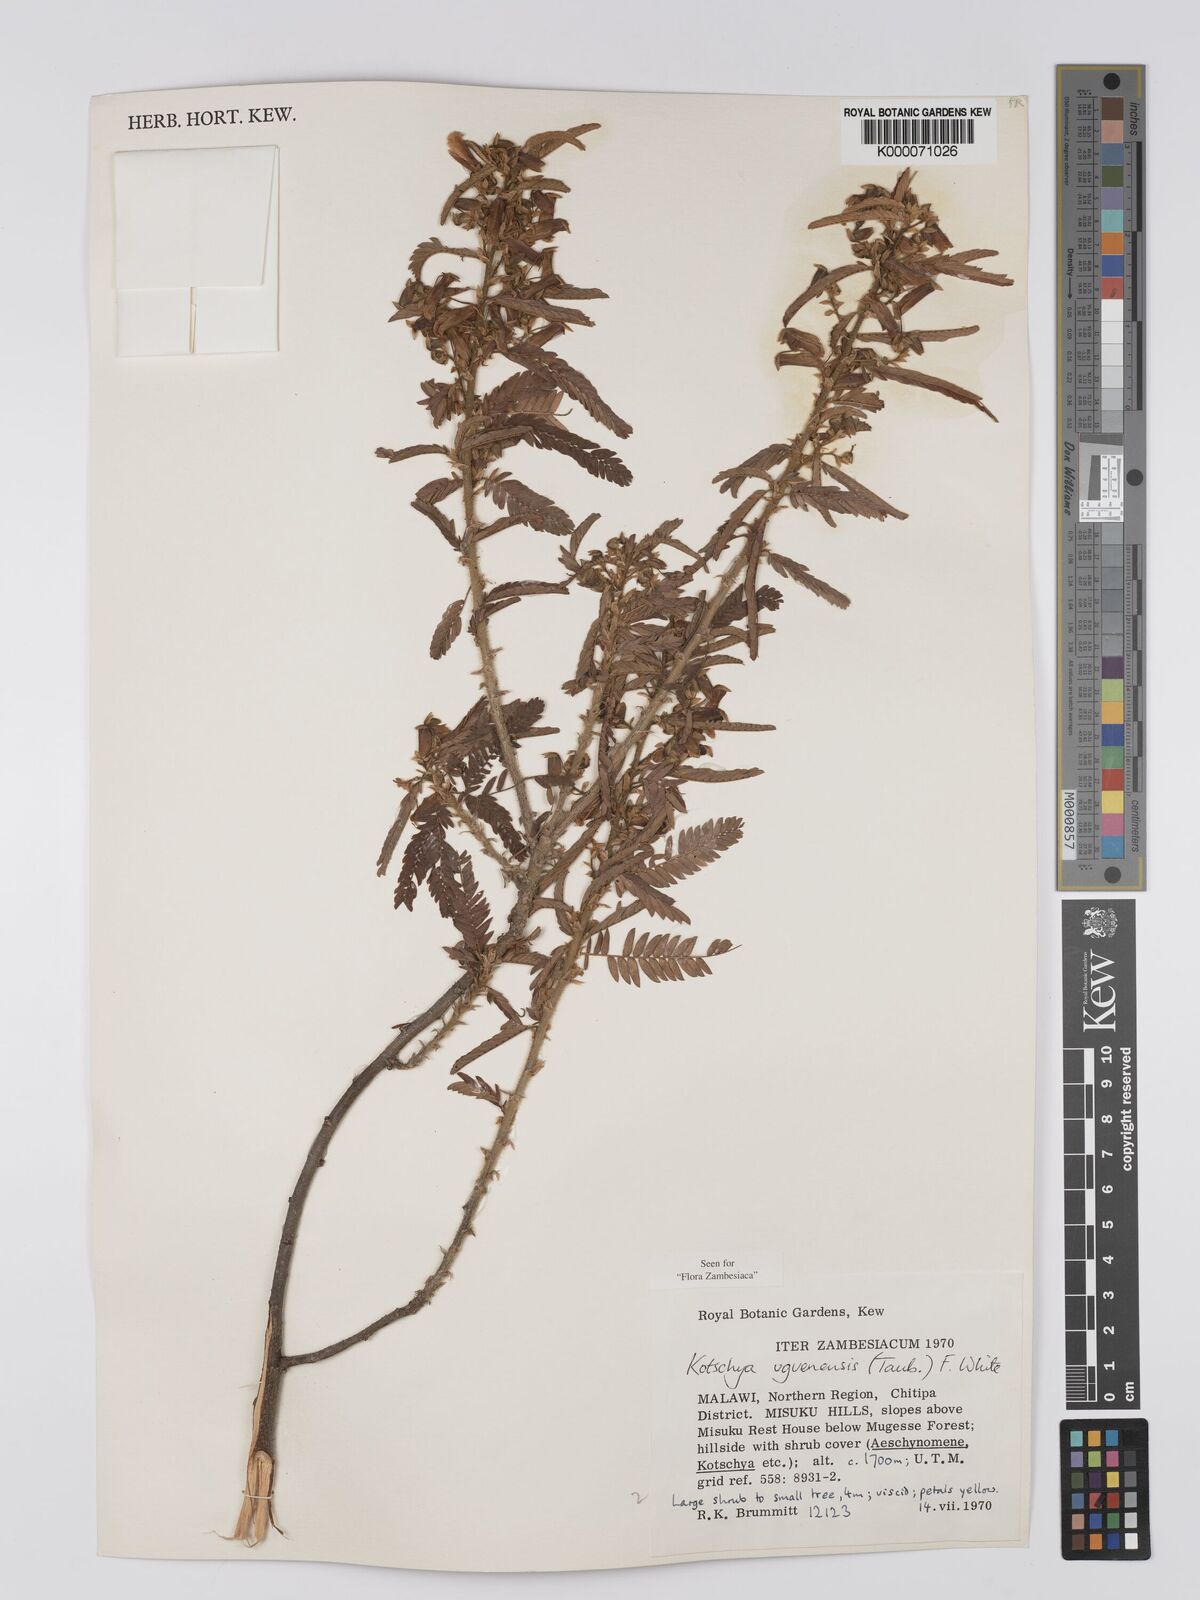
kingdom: Plantae
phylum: Tracheophyta
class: Magnoliopsida
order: Fabales
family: Fabaceae
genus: Kotschya
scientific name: Kotschya uguenensis
